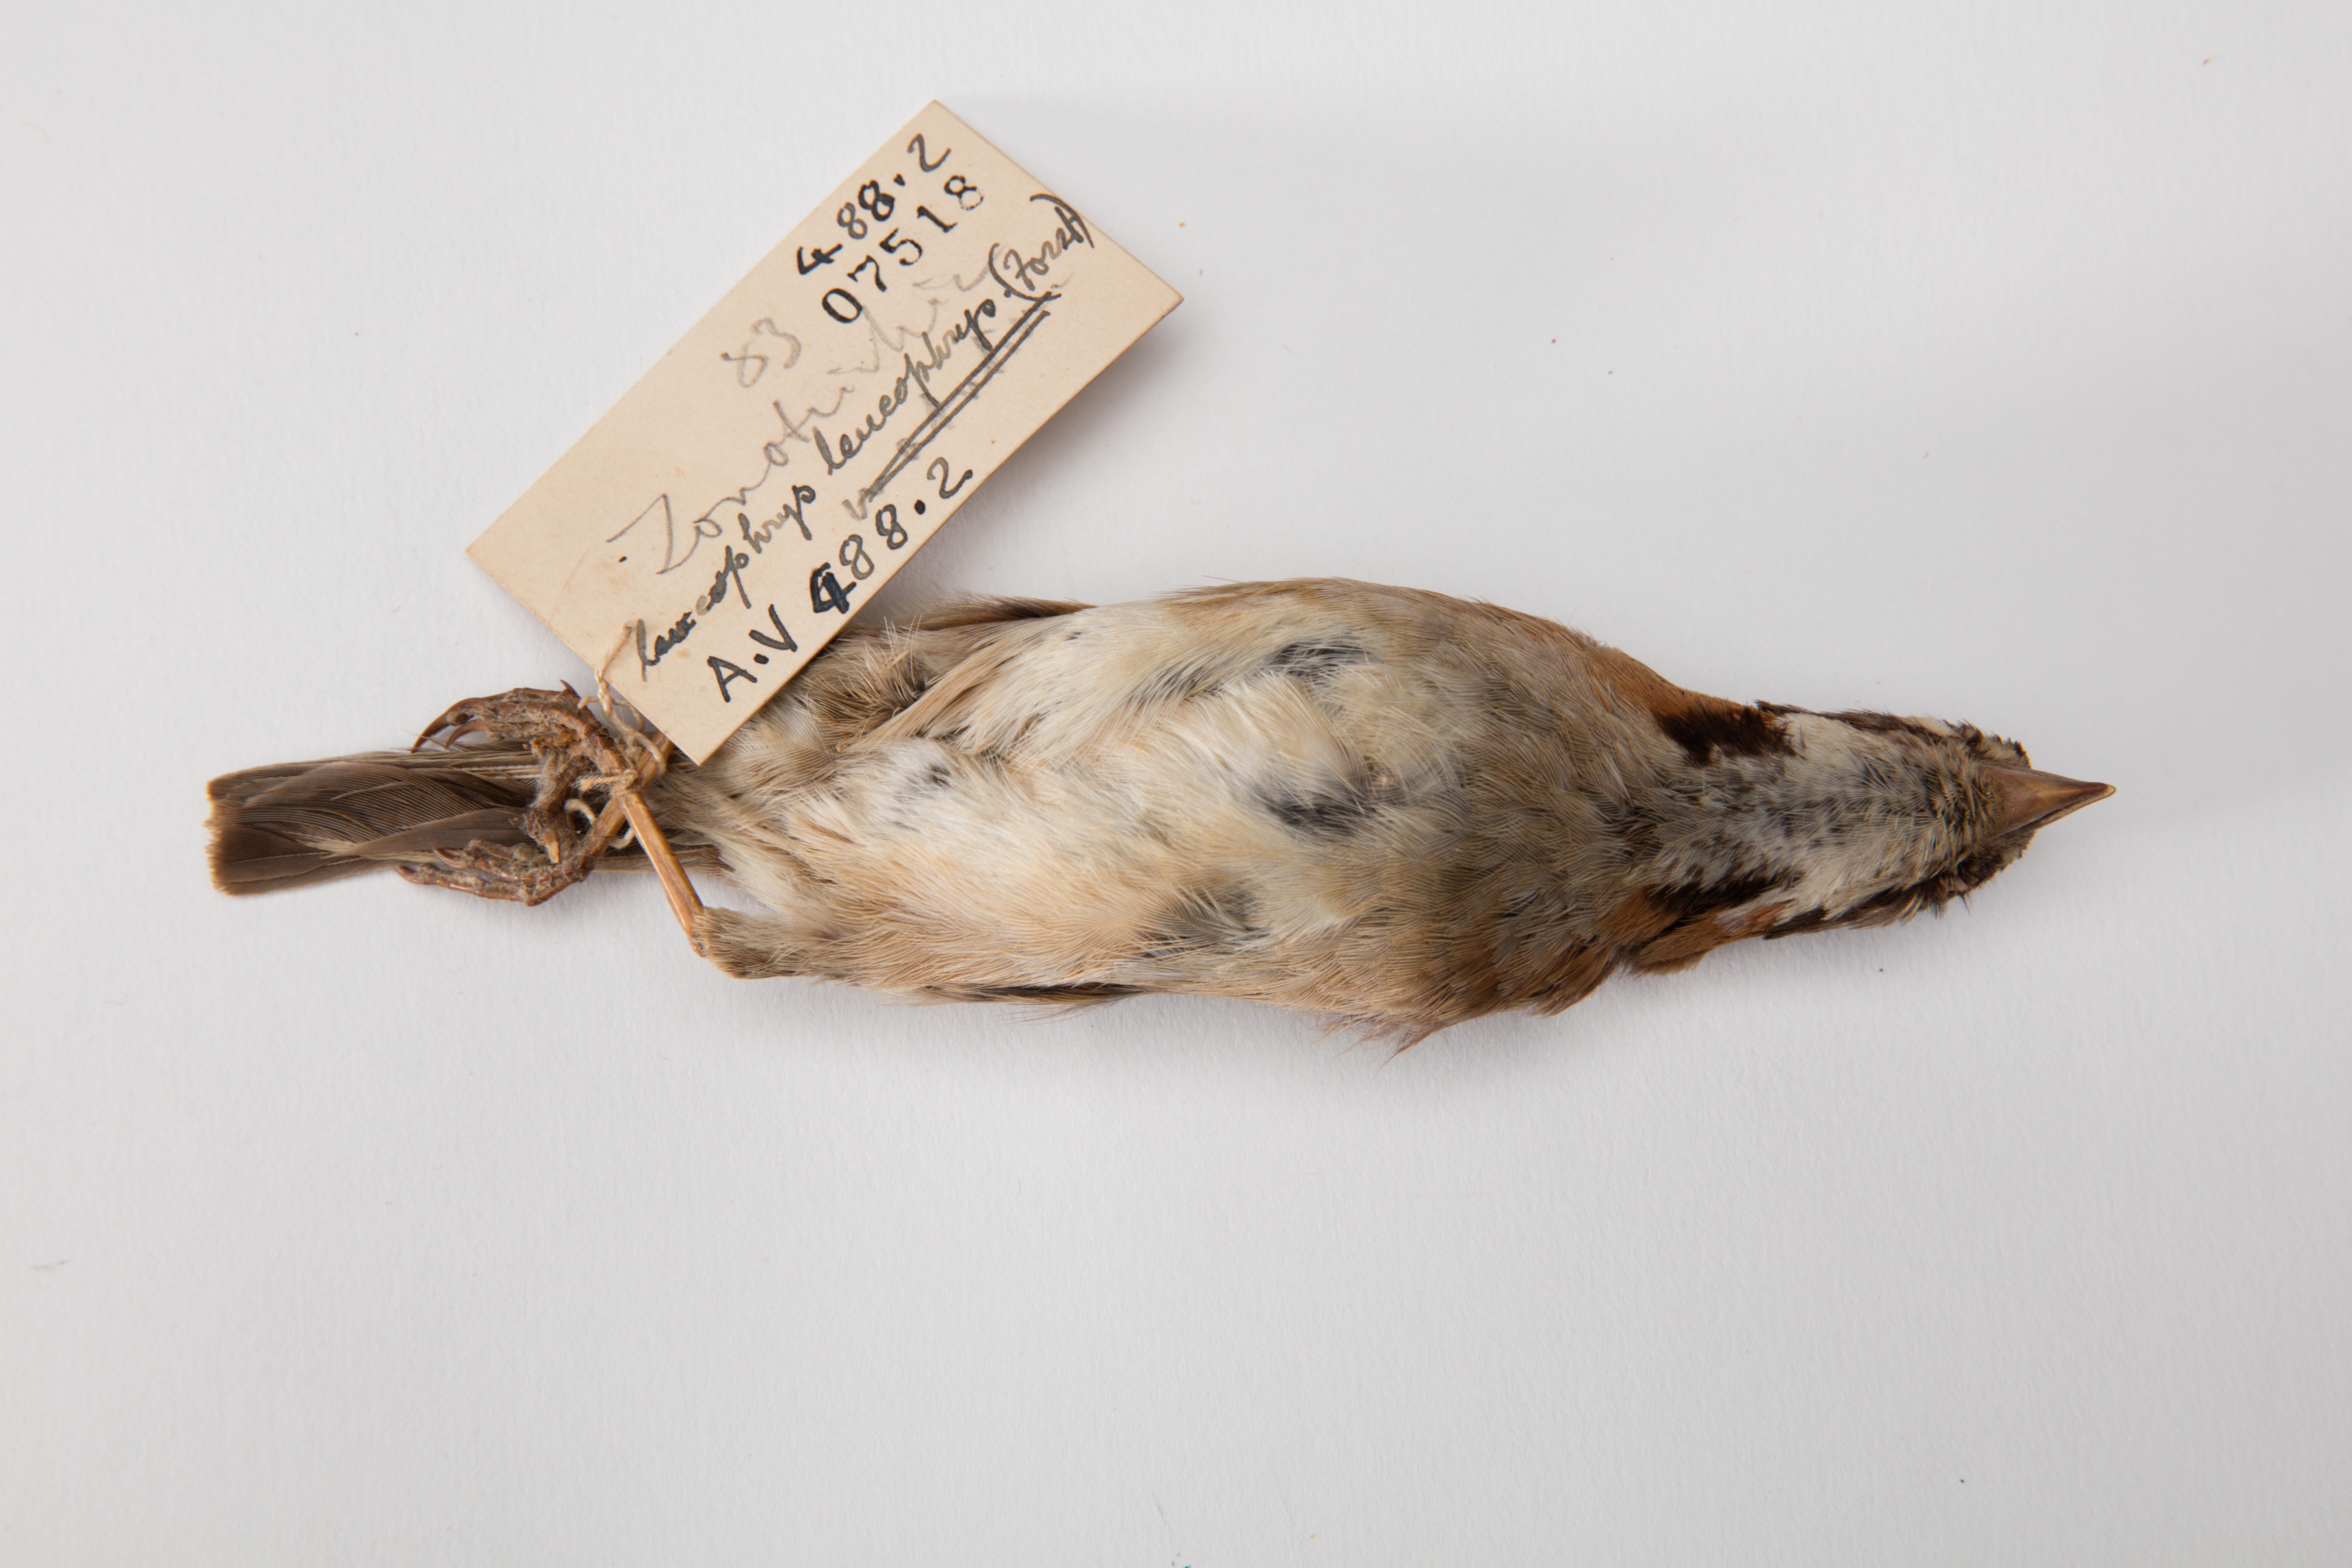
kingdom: Animalia
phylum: Chordata
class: Aves
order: Passeriformes
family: Passerellidae
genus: Zonotrichia
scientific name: Zonotrichia leucophrys
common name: White-crowned sparrow
